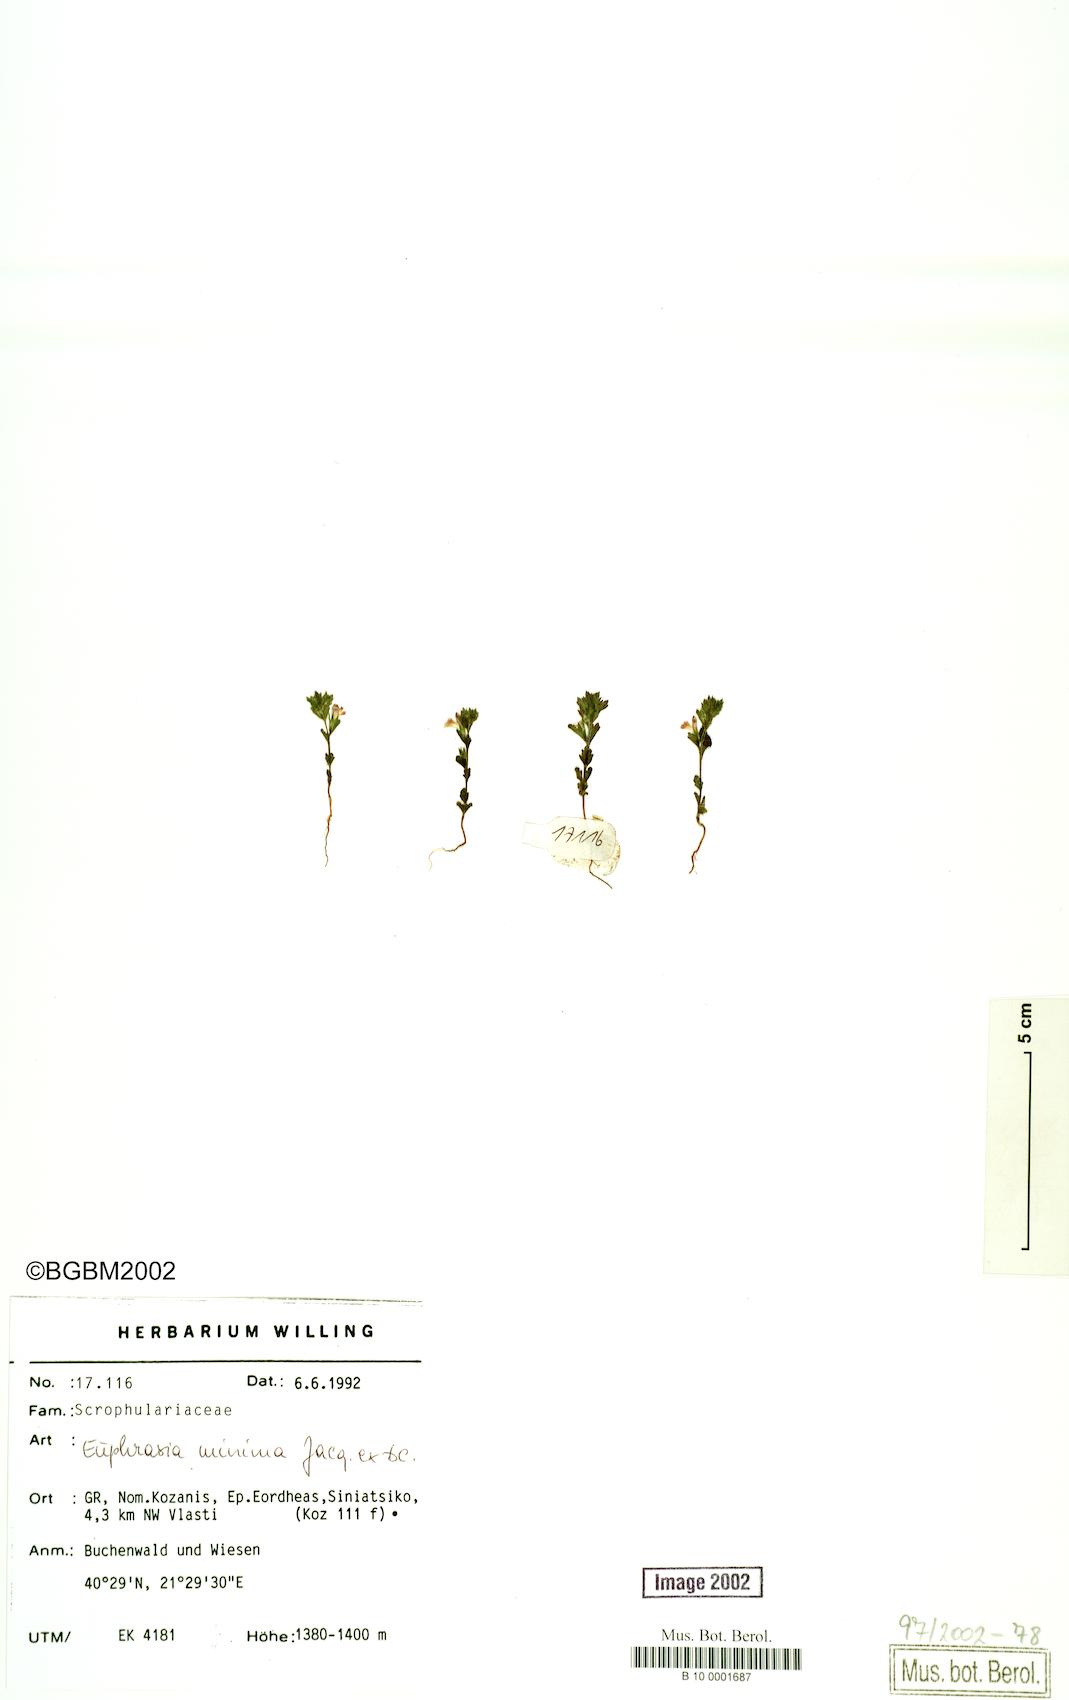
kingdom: Plantae
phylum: Tracheophyta
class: Magnoliopsida
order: Lamiales
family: Orobanchaceae
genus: Euphrasia
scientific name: Euphrasia minima
